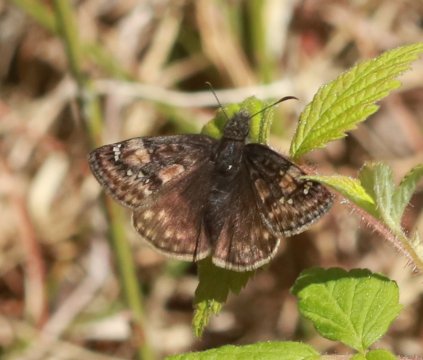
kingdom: Animalia
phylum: Arthropoda
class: Insecta
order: Lepidoptera
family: Hesperiidae
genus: Gesta
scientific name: Gesta
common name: Juvenal's Duskywing
